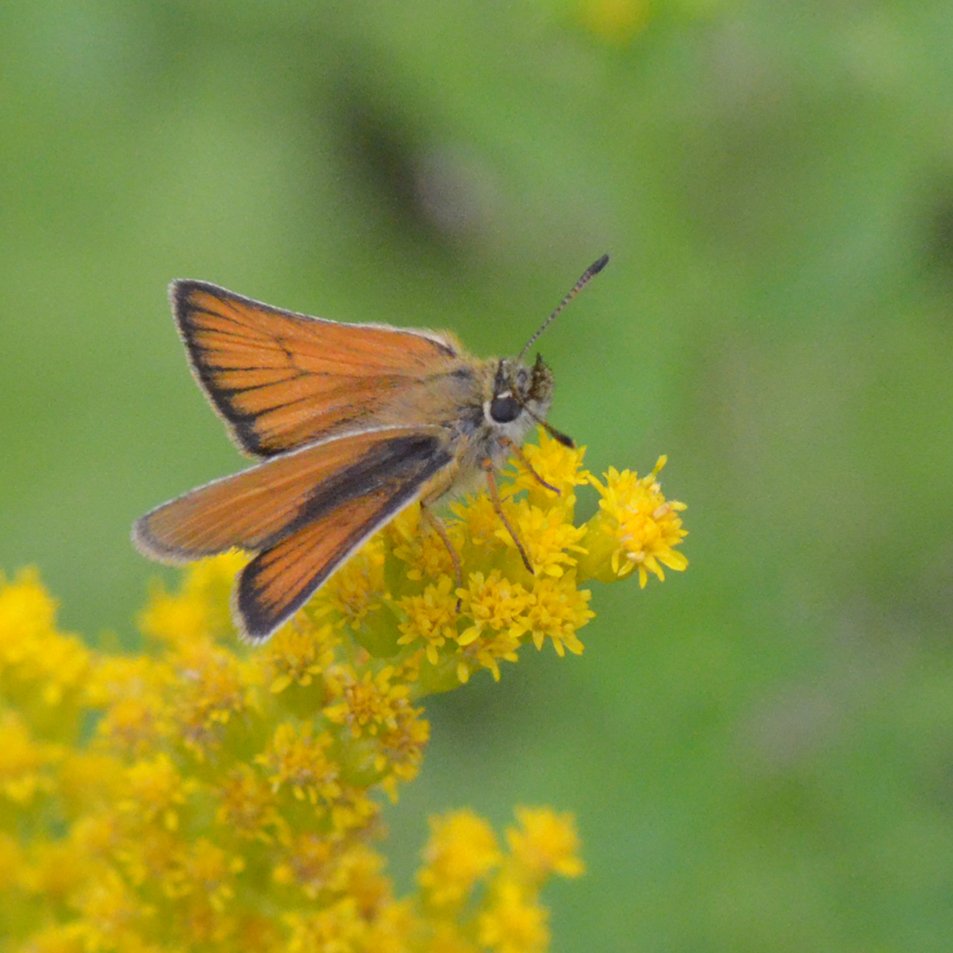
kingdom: Animalia
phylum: Arthropoda
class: Insecta
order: Lepidoptera
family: Hesperiidae
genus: Thymelicus
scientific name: Thymelicus lineola
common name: European Skipper
